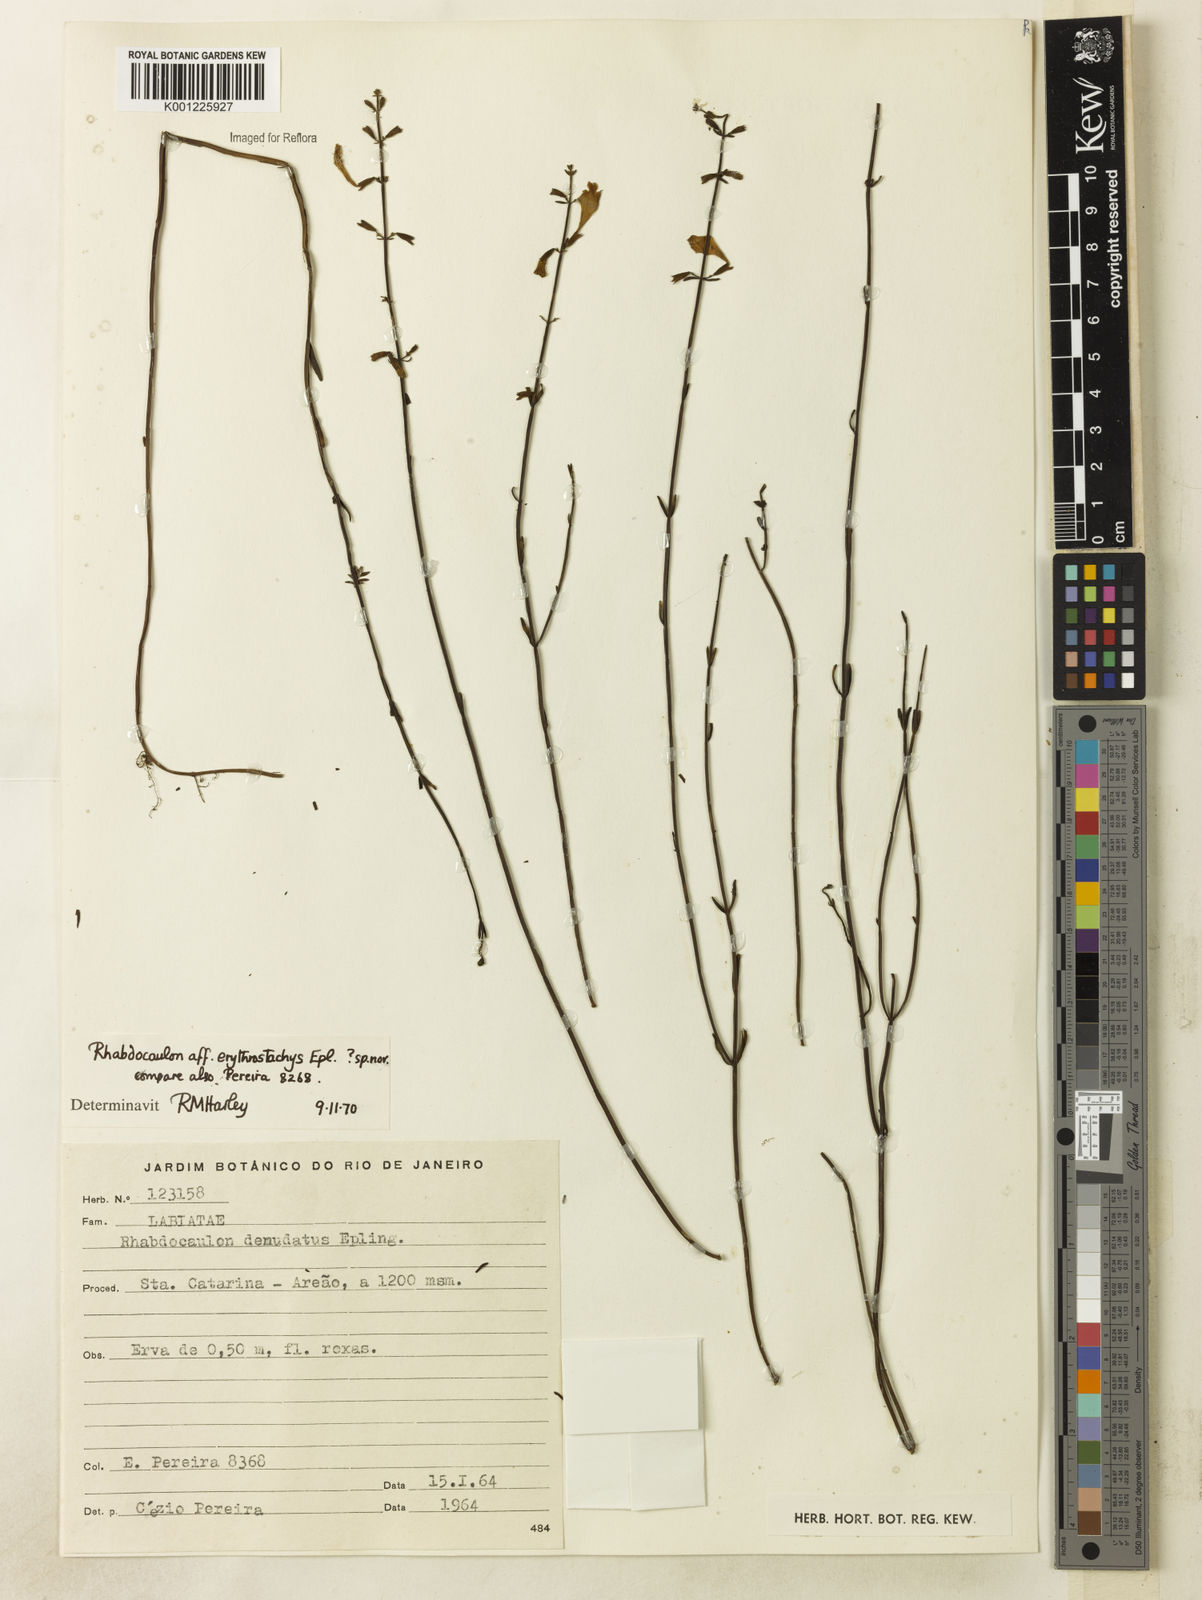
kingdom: Plantae
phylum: Tracheophyta
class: Magnoliopsida
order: Lamiales
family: Lamiaceae
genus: Rhabdocaulon
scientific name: Rhabdocaulon erythrostachys
